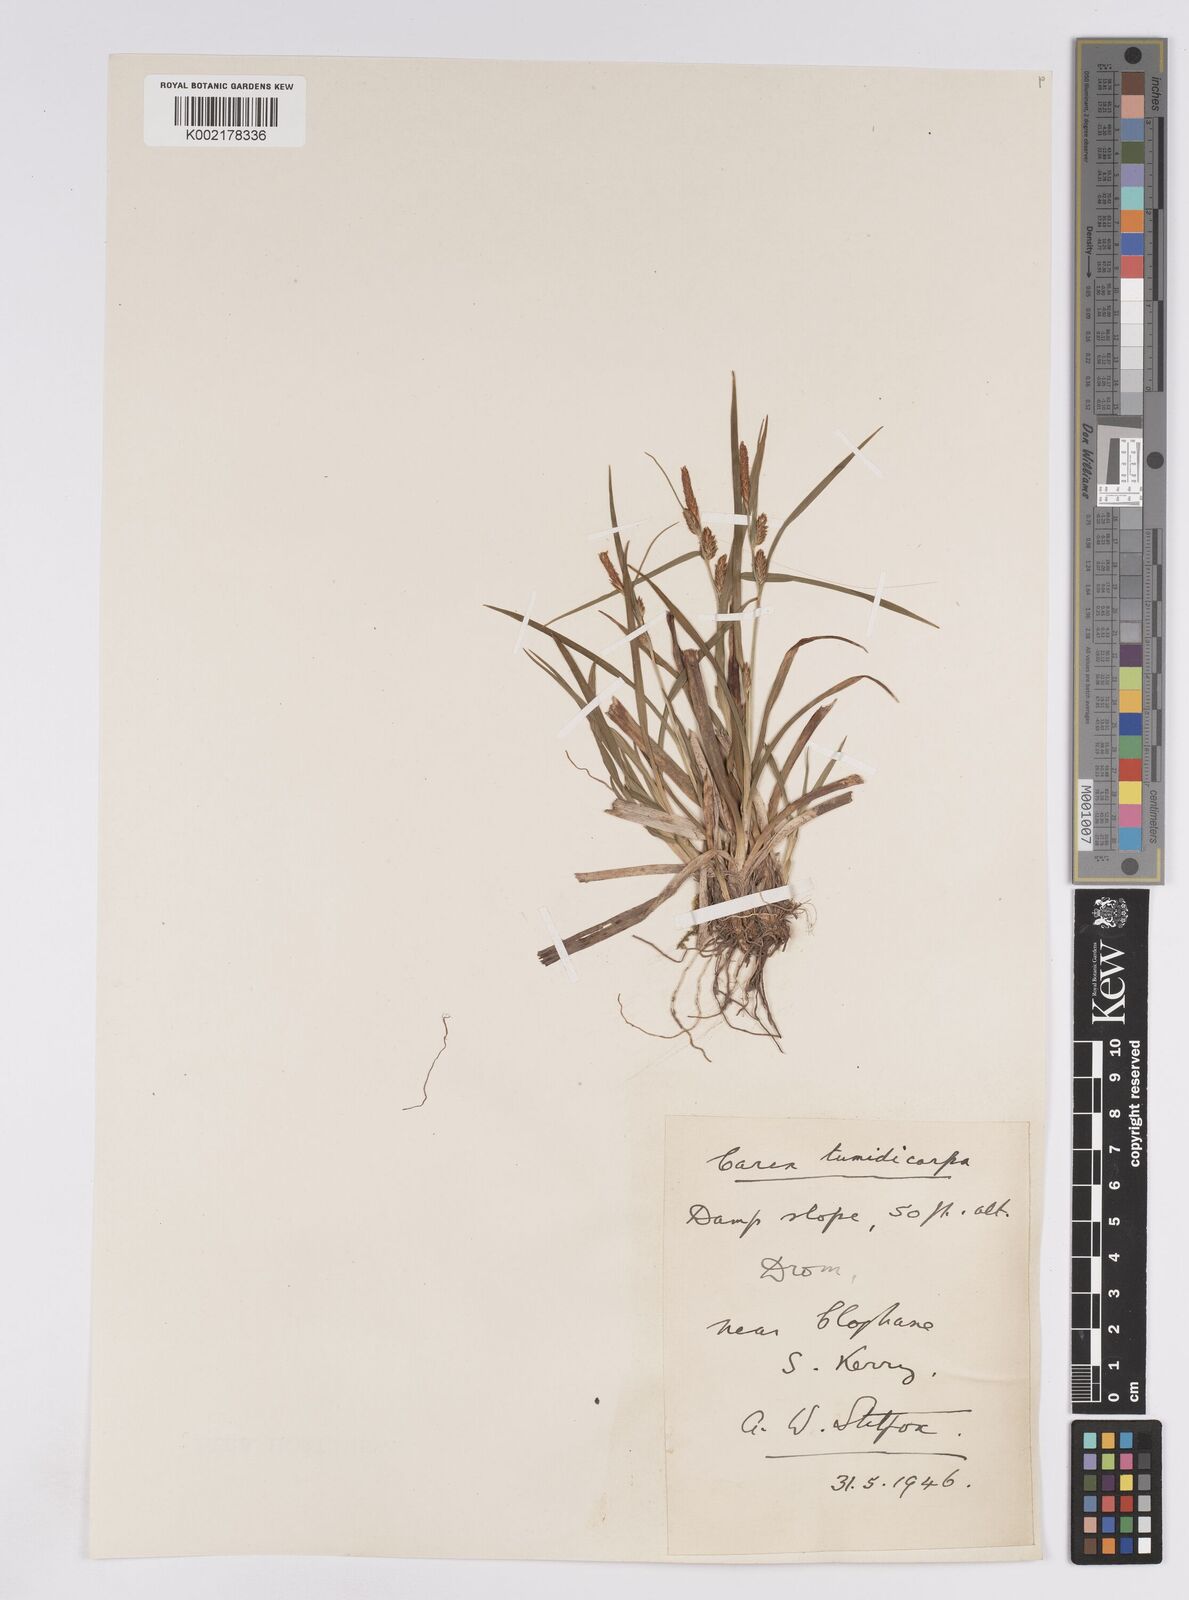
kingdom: Plantae
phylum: Tracheophyta
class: Liliopsida
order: Poales
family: Cyperaceae
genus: Carex
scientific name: Carex demissa
